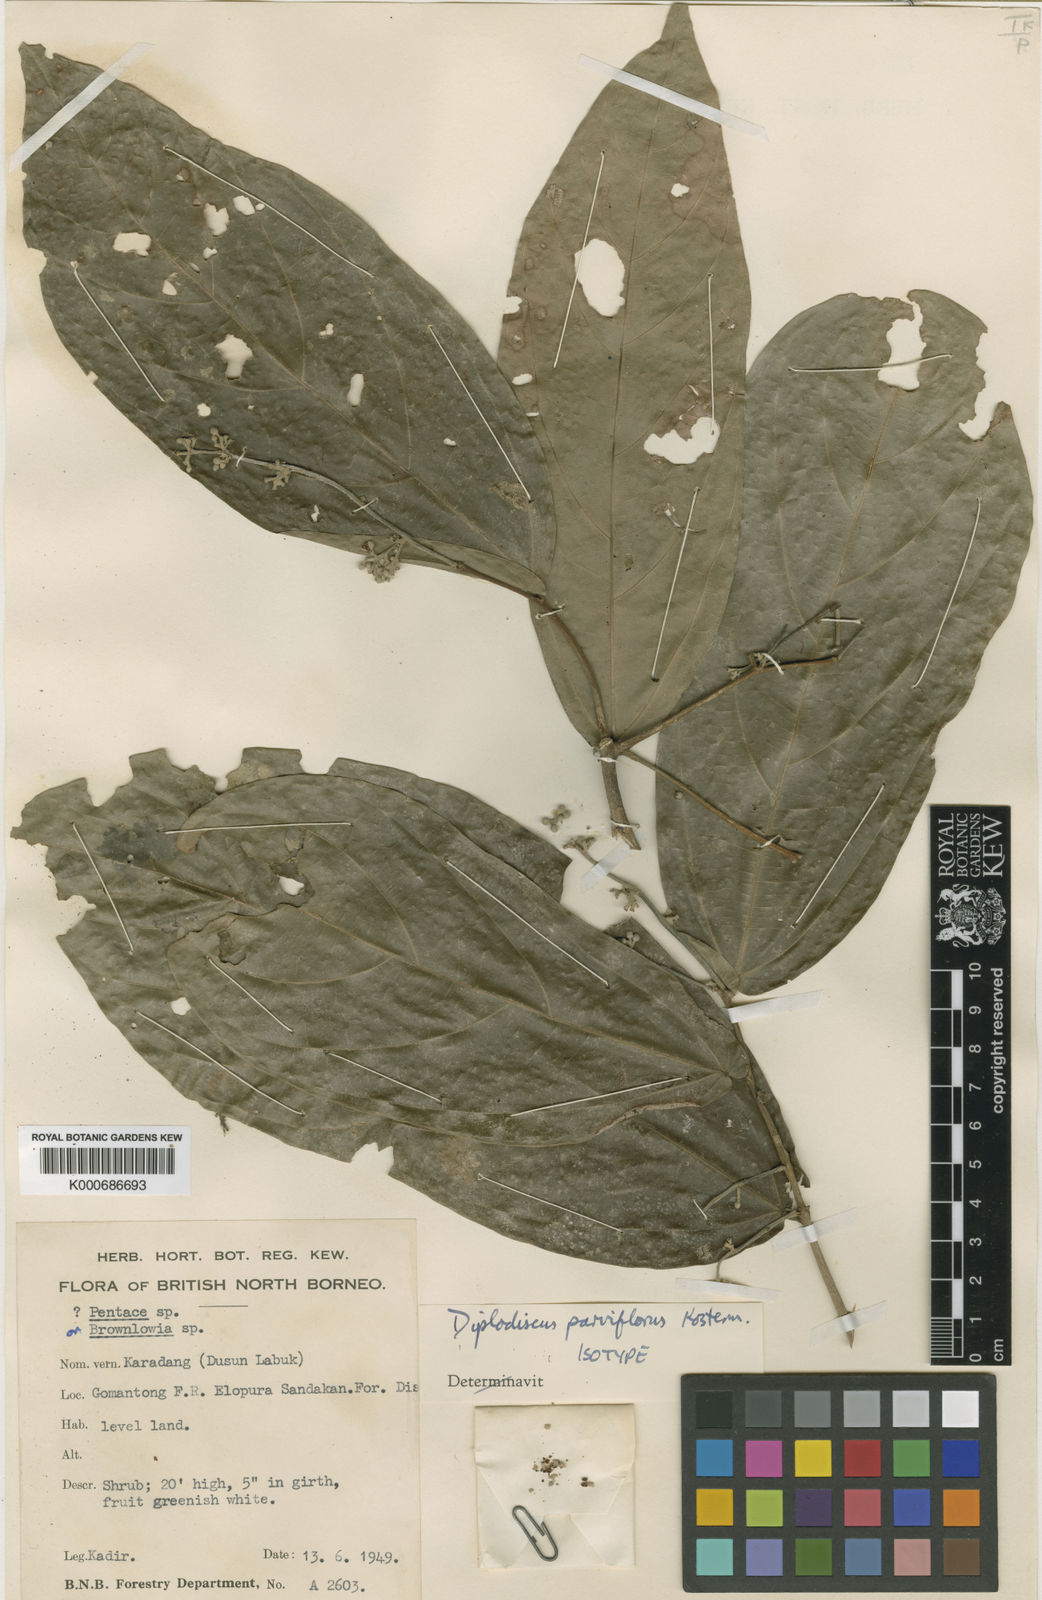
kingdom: Plantae
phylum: Tracheophyta
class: Magnoliopsida
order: Malvales
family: Malvaceae
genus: Diplodiscus
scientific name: Diplodiscus parviflorus
